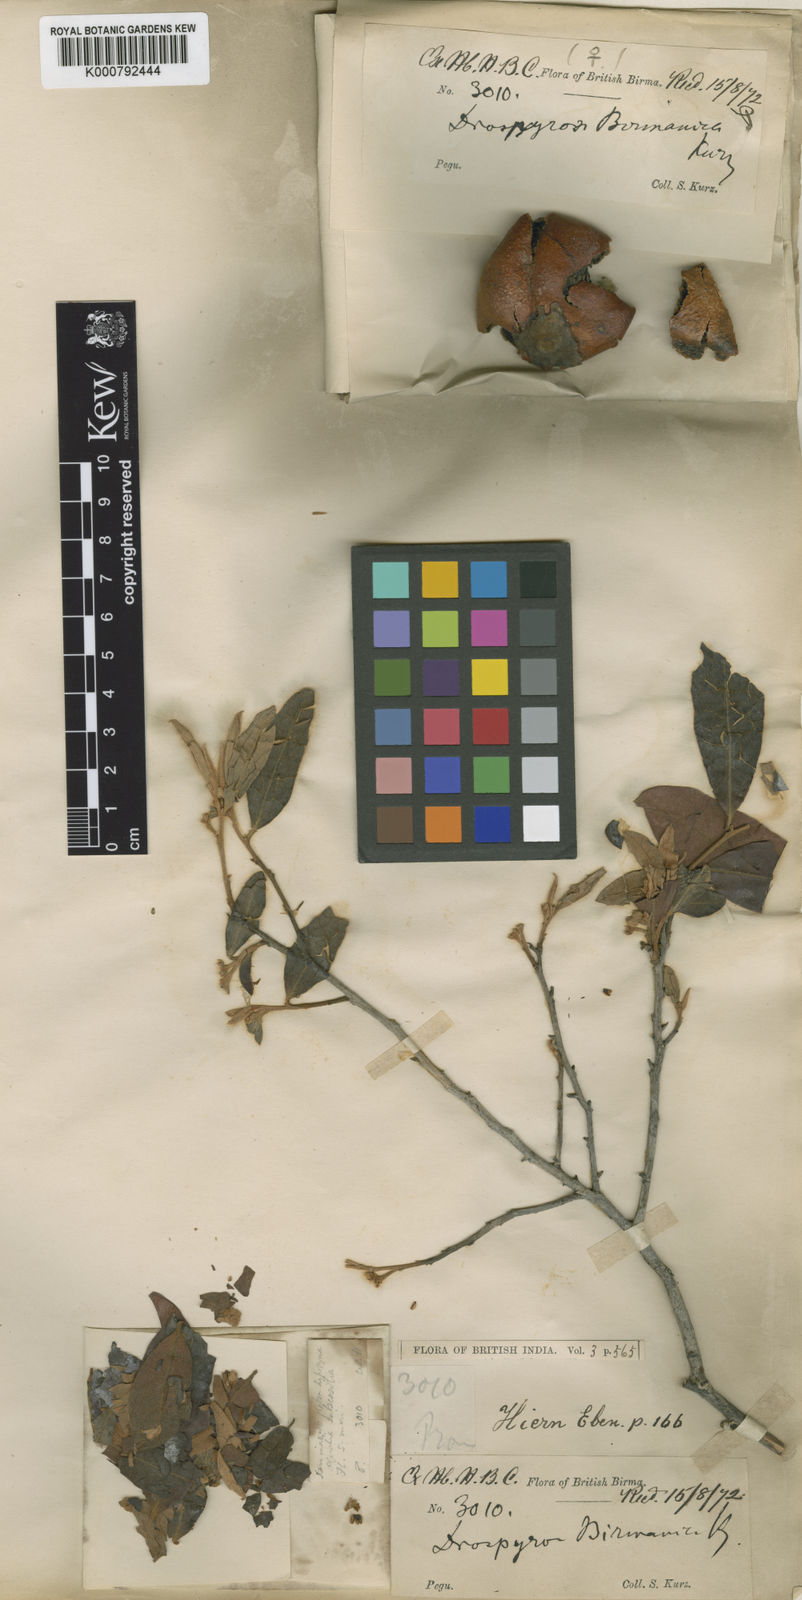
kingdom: Plantae
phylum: Tracheophyta
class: Magnoliopsida
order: Ericales
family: Ebenaceae
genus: Diospyros
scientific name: Diospyros burmanica
